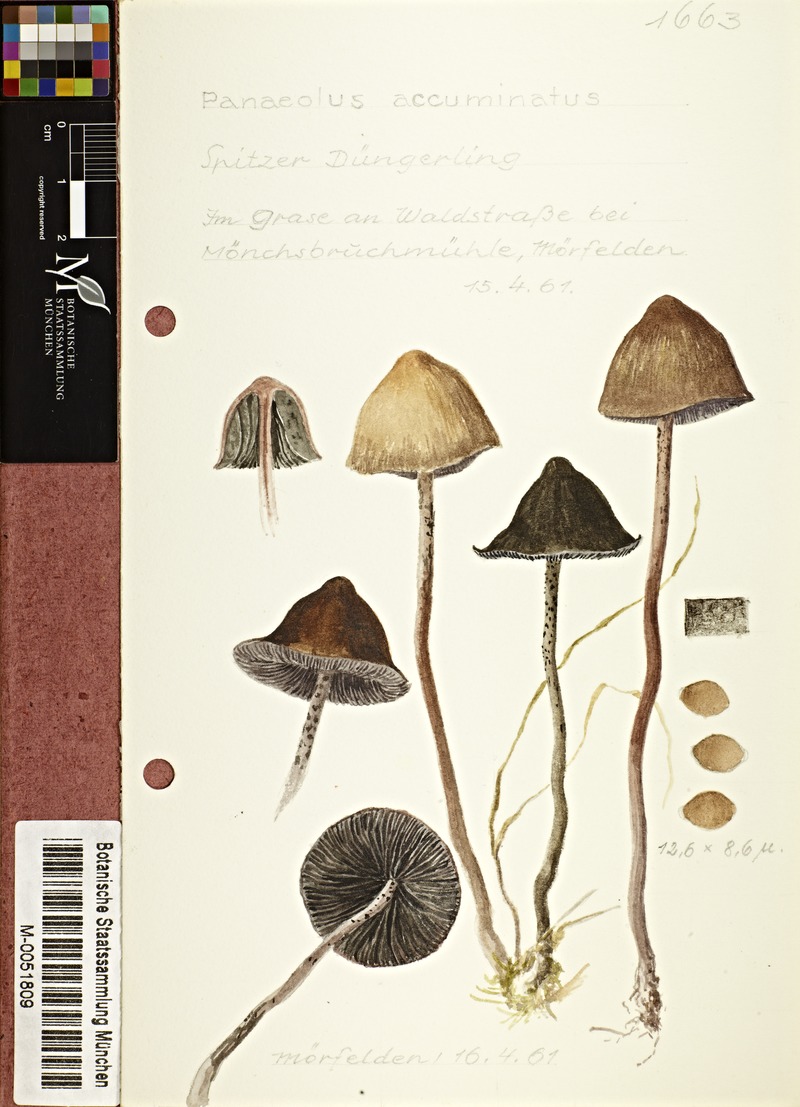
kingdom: Fungi
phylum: Basidiomycota
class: Agaricomycetes
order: Agaricales
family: Bolbitiaceae
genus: Panaeolus
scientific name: Panaeolus acuminatus
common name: Dewdrop mottlegill
